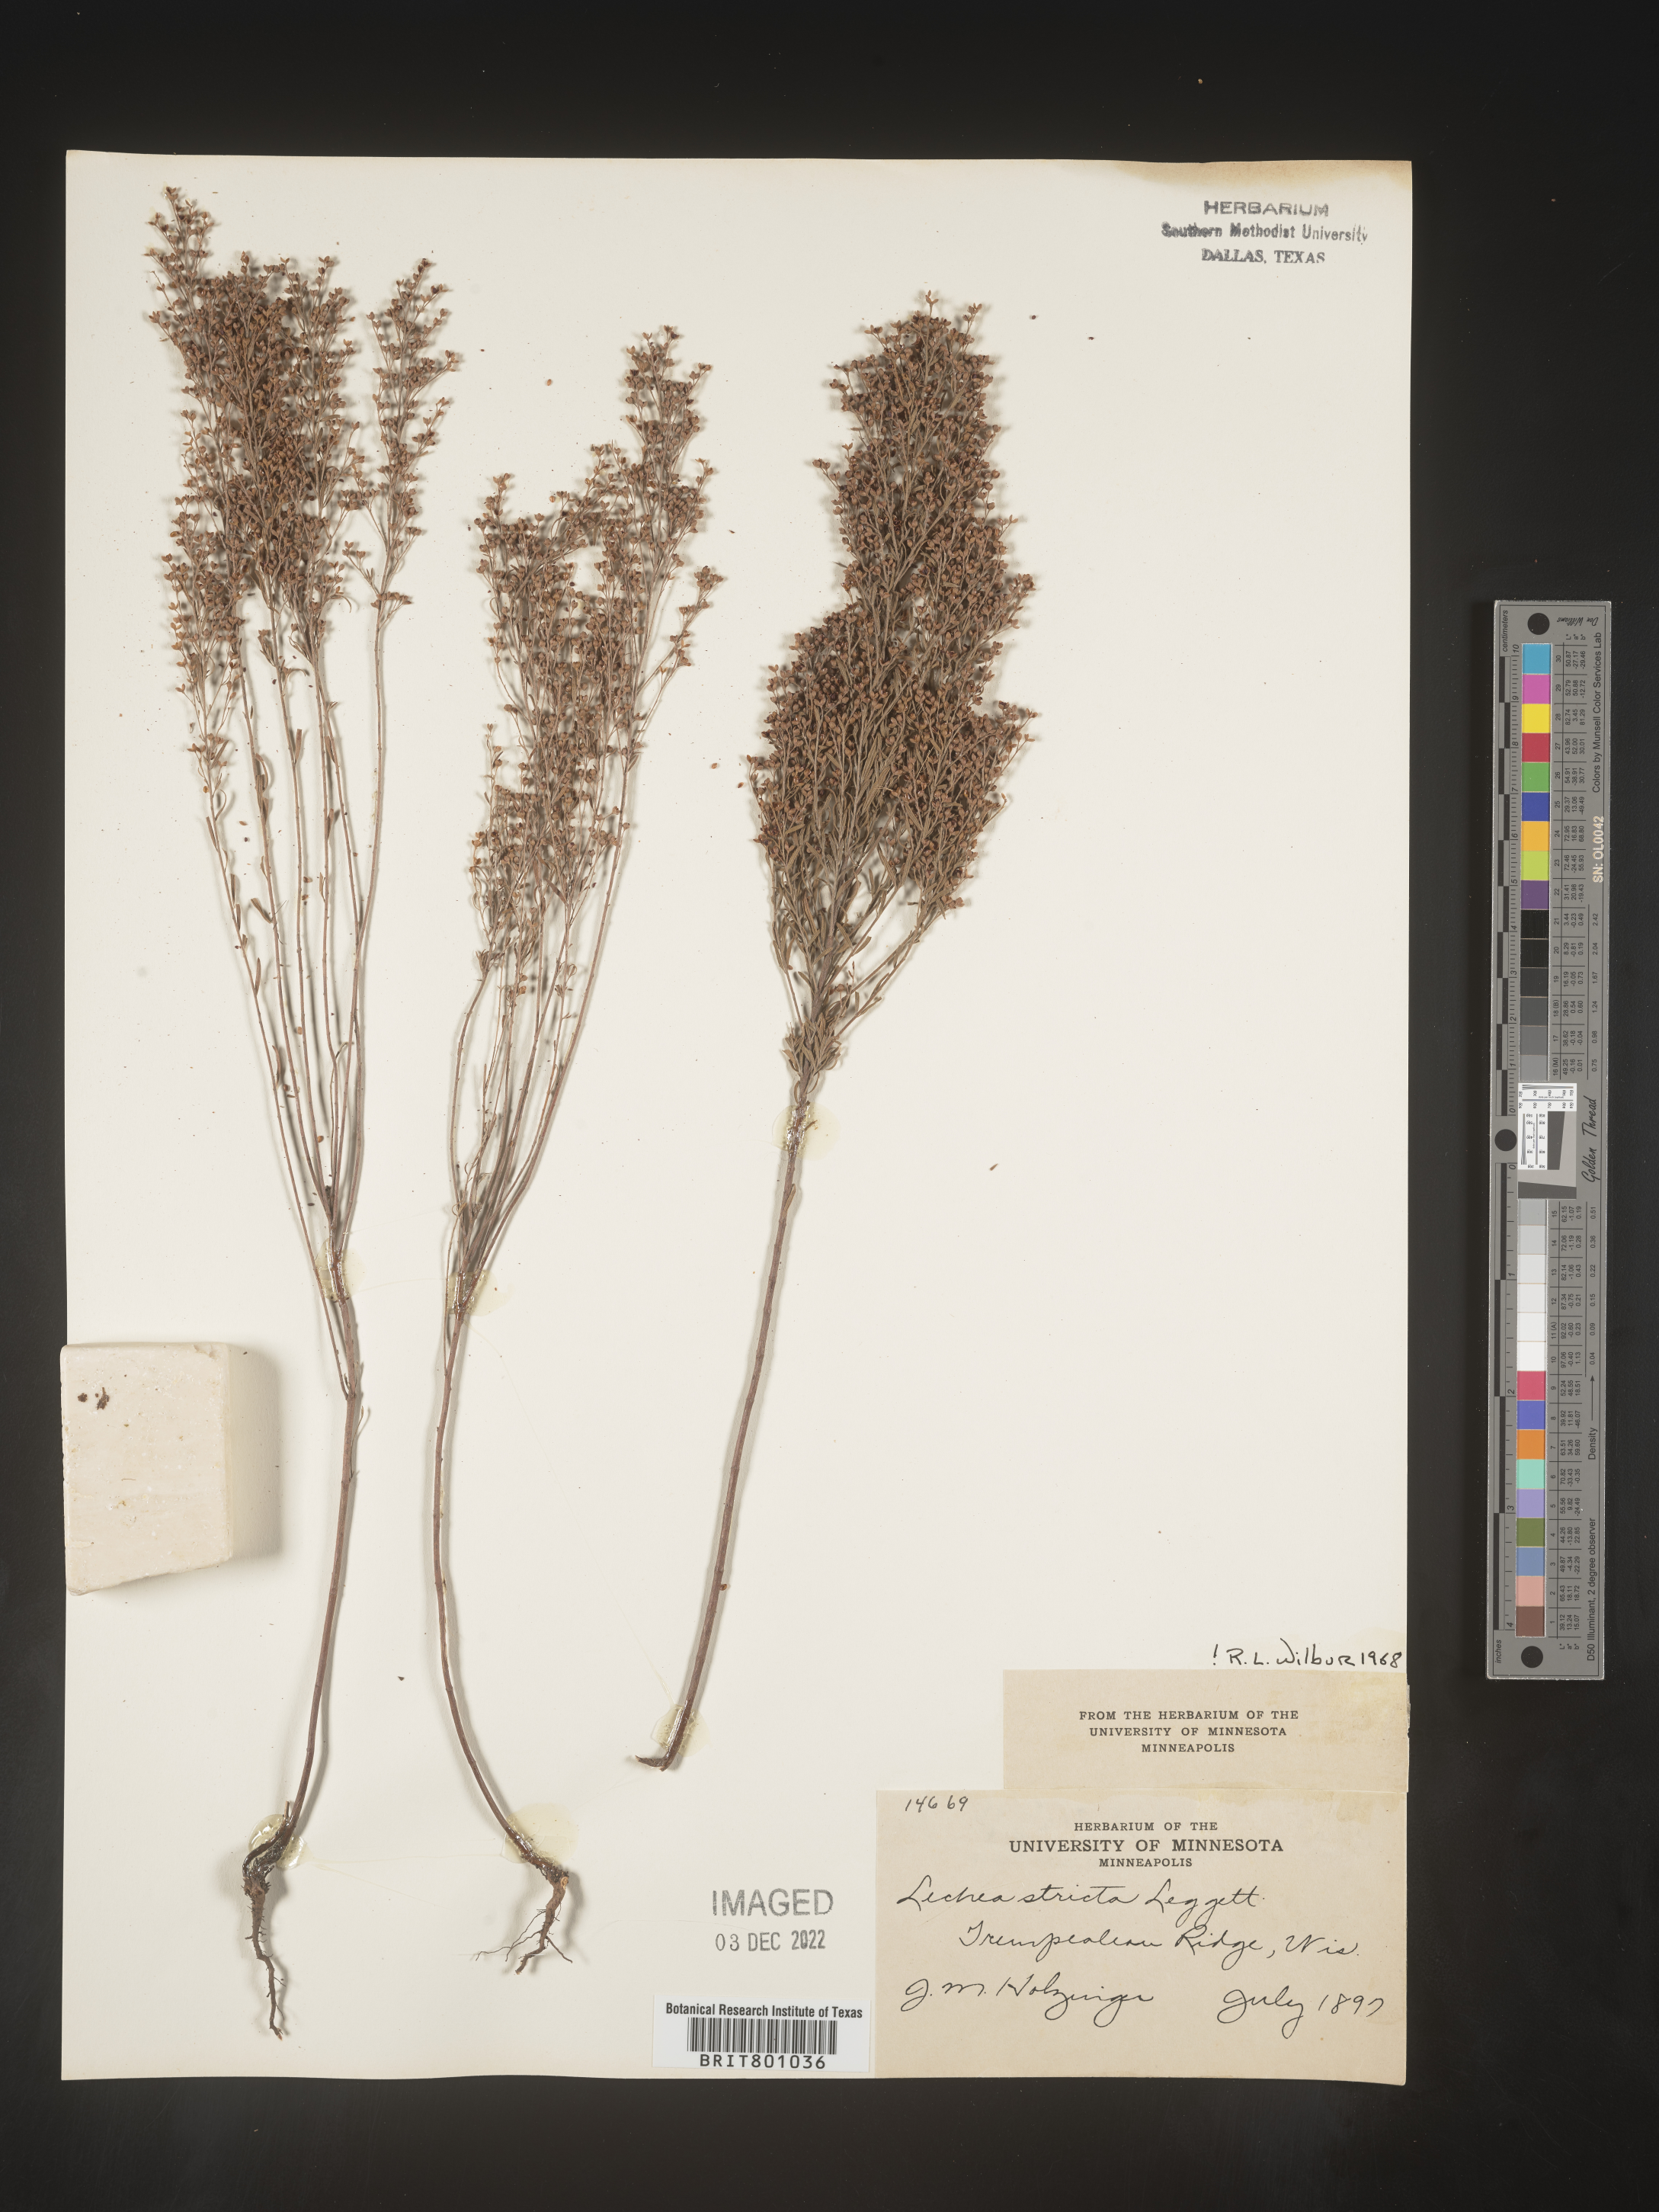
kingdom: Plantae
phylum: Tracheophyta
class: Magnoliopsida
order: Malvales
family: Cistaceae
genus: Lechea
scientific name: Lechea
